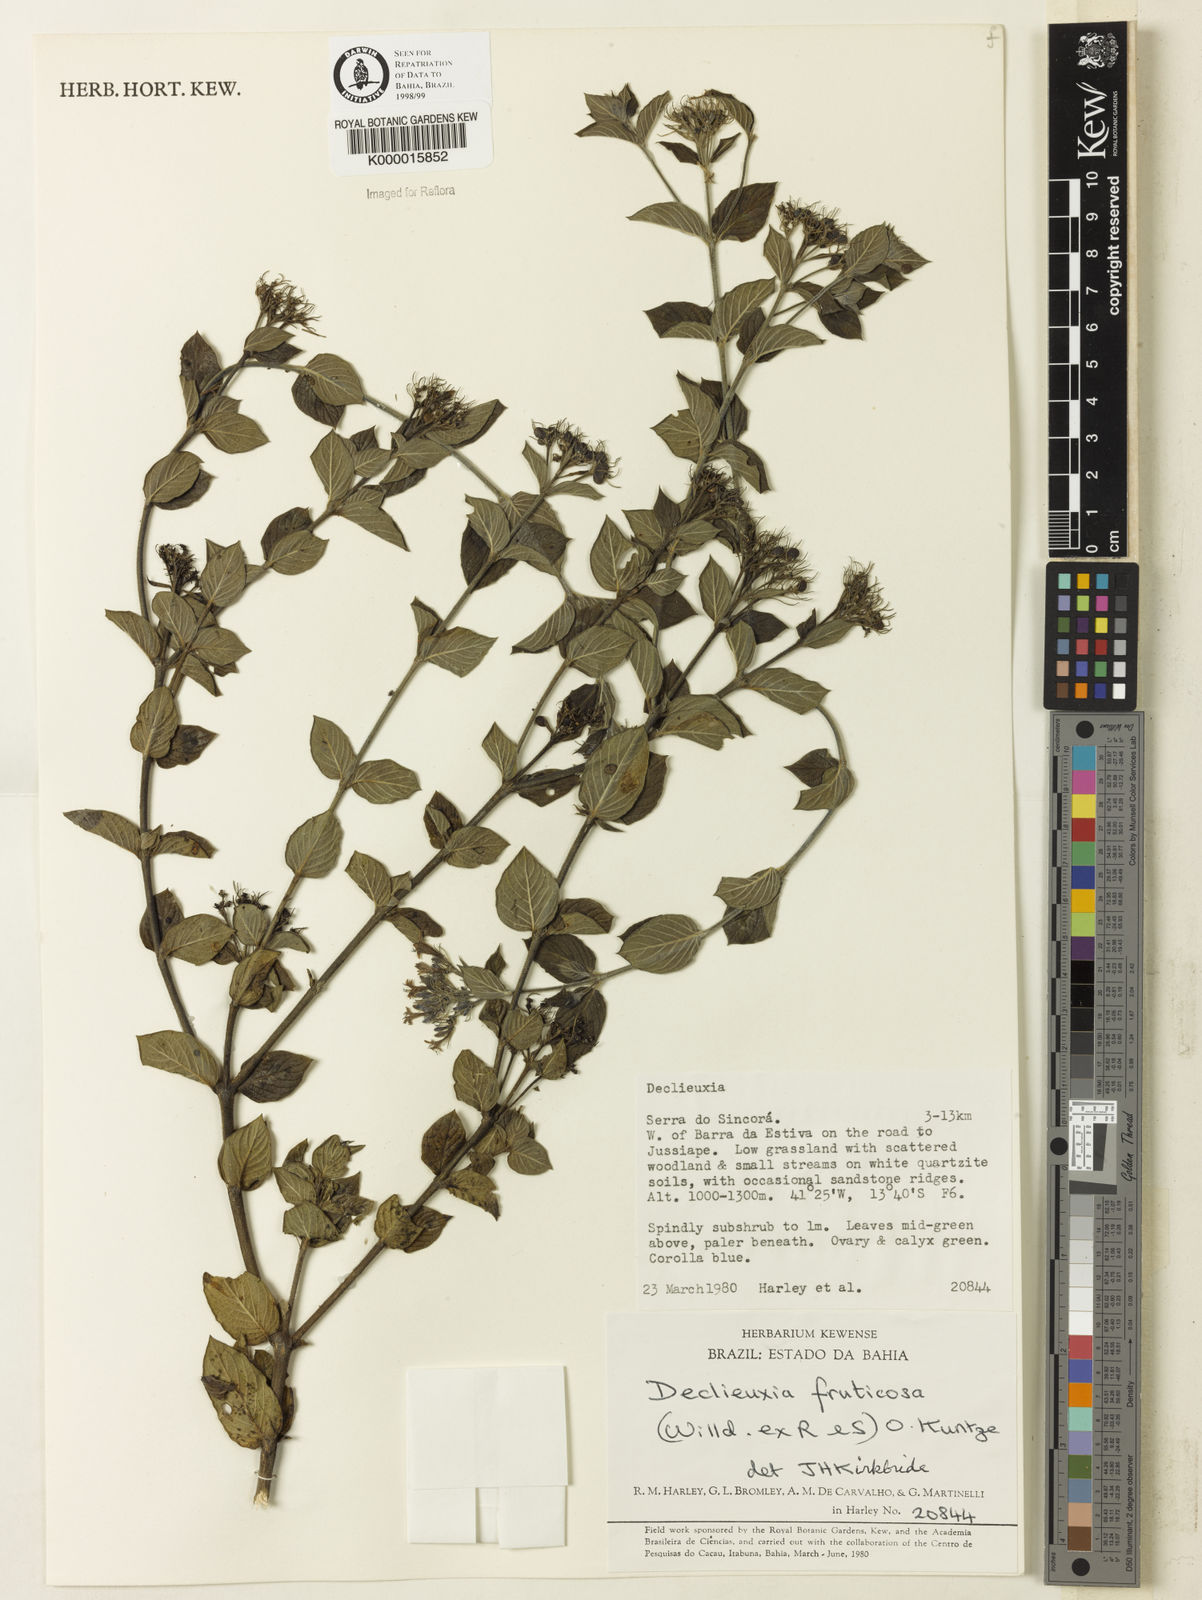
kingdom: Plantae
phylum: Tracheophyta
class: Magnoliopsida
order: Gentianales
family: Rubiaceae
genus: Declieuxia
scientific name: Declieuxia fruticosa
